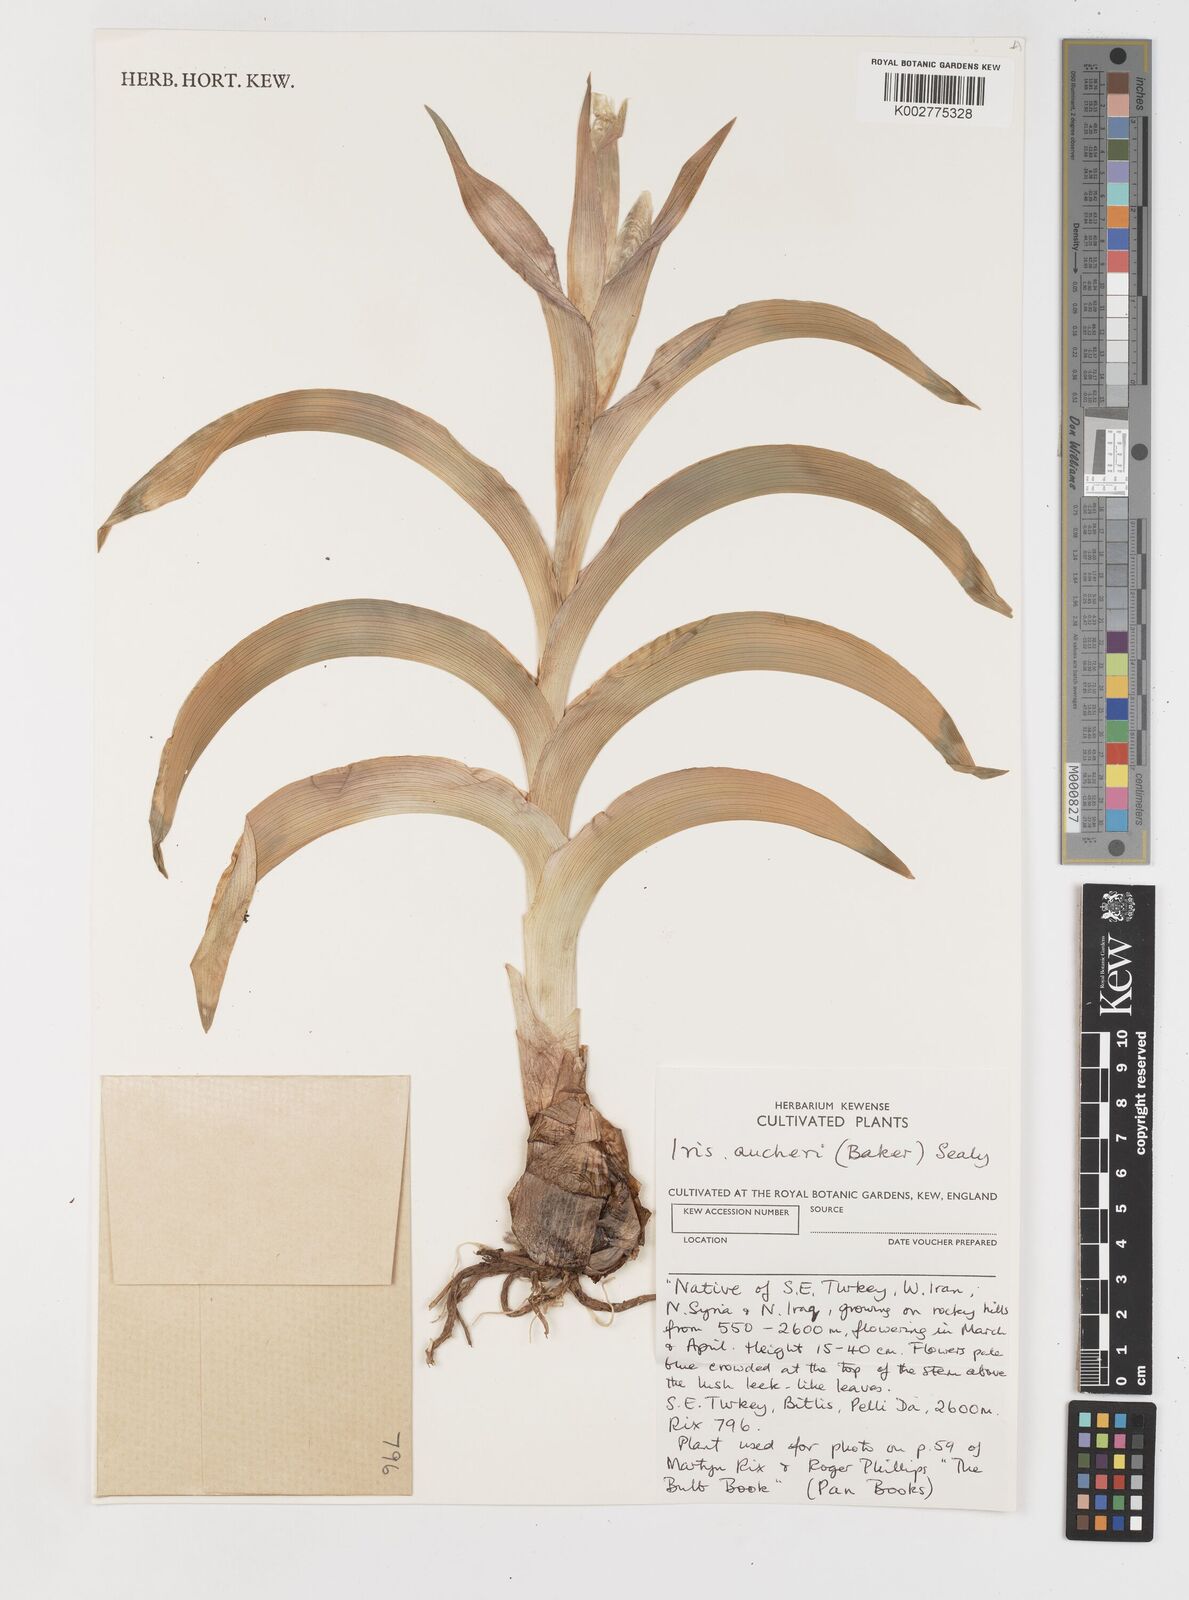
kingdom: Plantae
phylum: Tracheophyta
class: Liliopsida
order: Asparagales
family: Iridaceae
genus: Iris
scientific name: Iris aucheri
